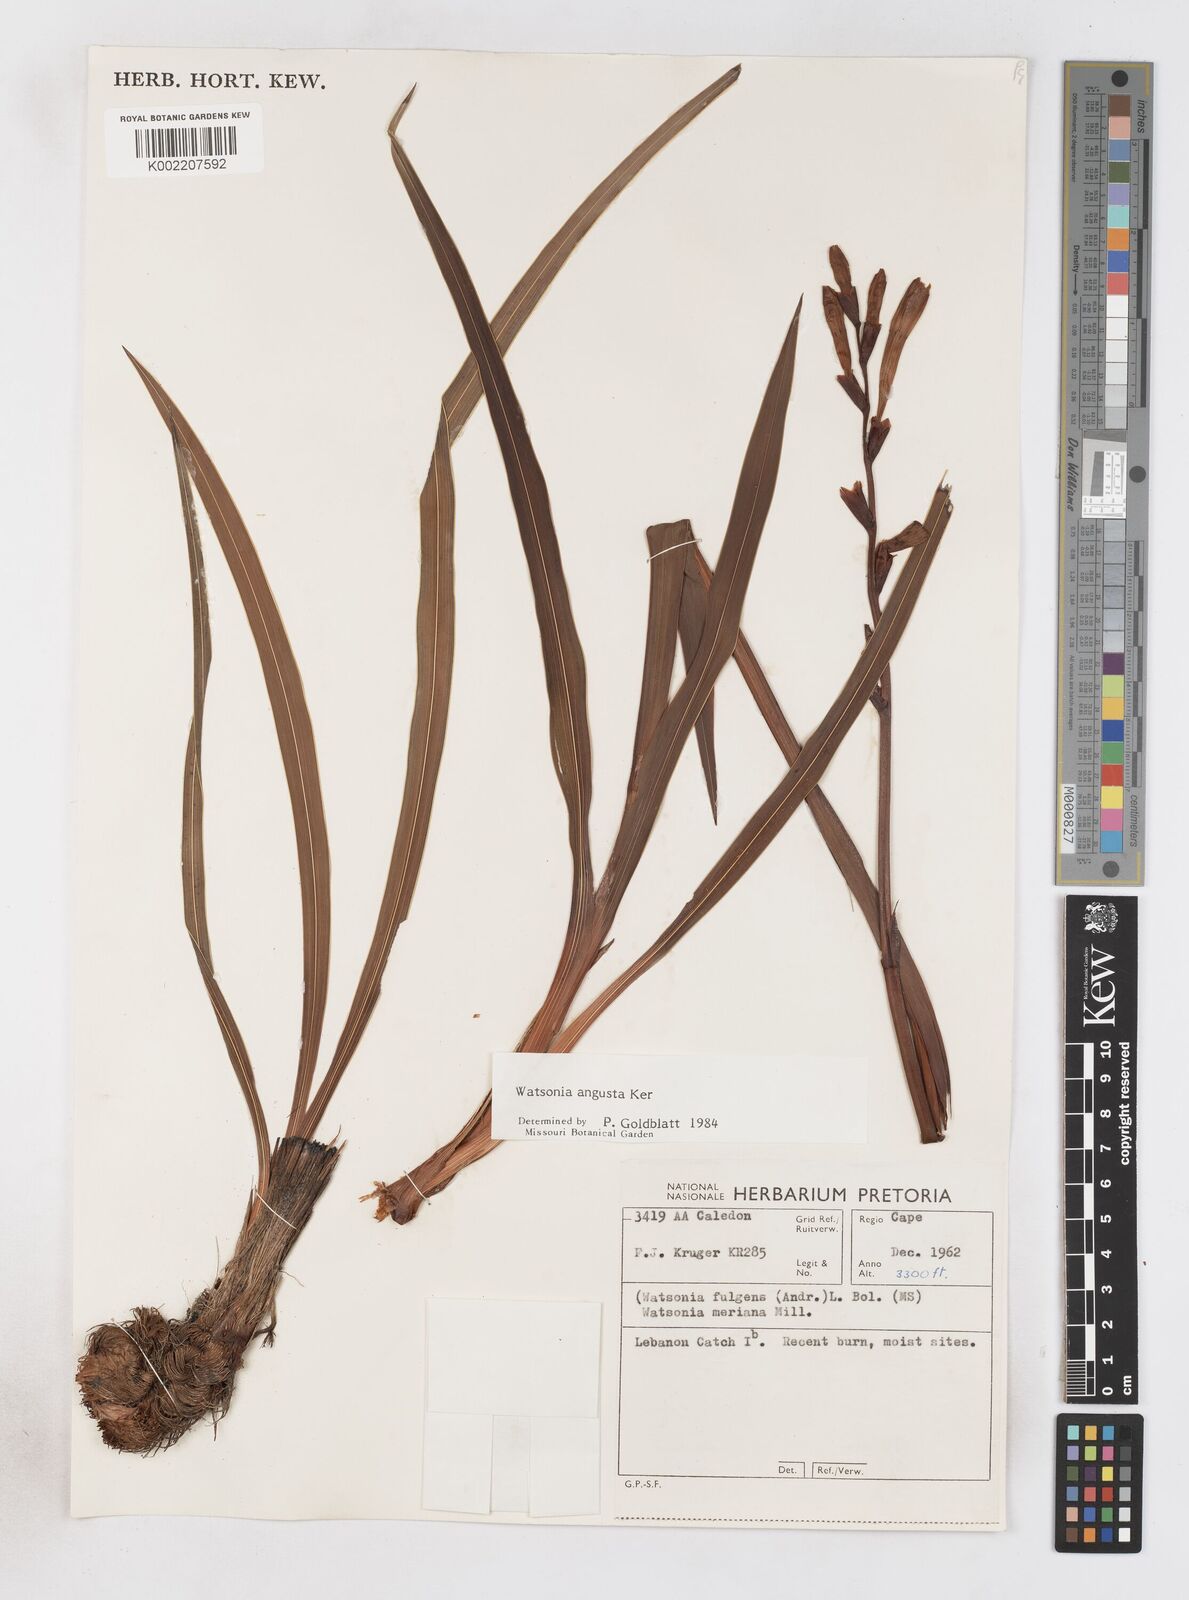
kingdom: Plantae
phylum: Tracheophyta
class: Liliopsida
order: Asparagales
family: Iridaceae
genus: Watsonia
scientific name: Watsonia angusta
